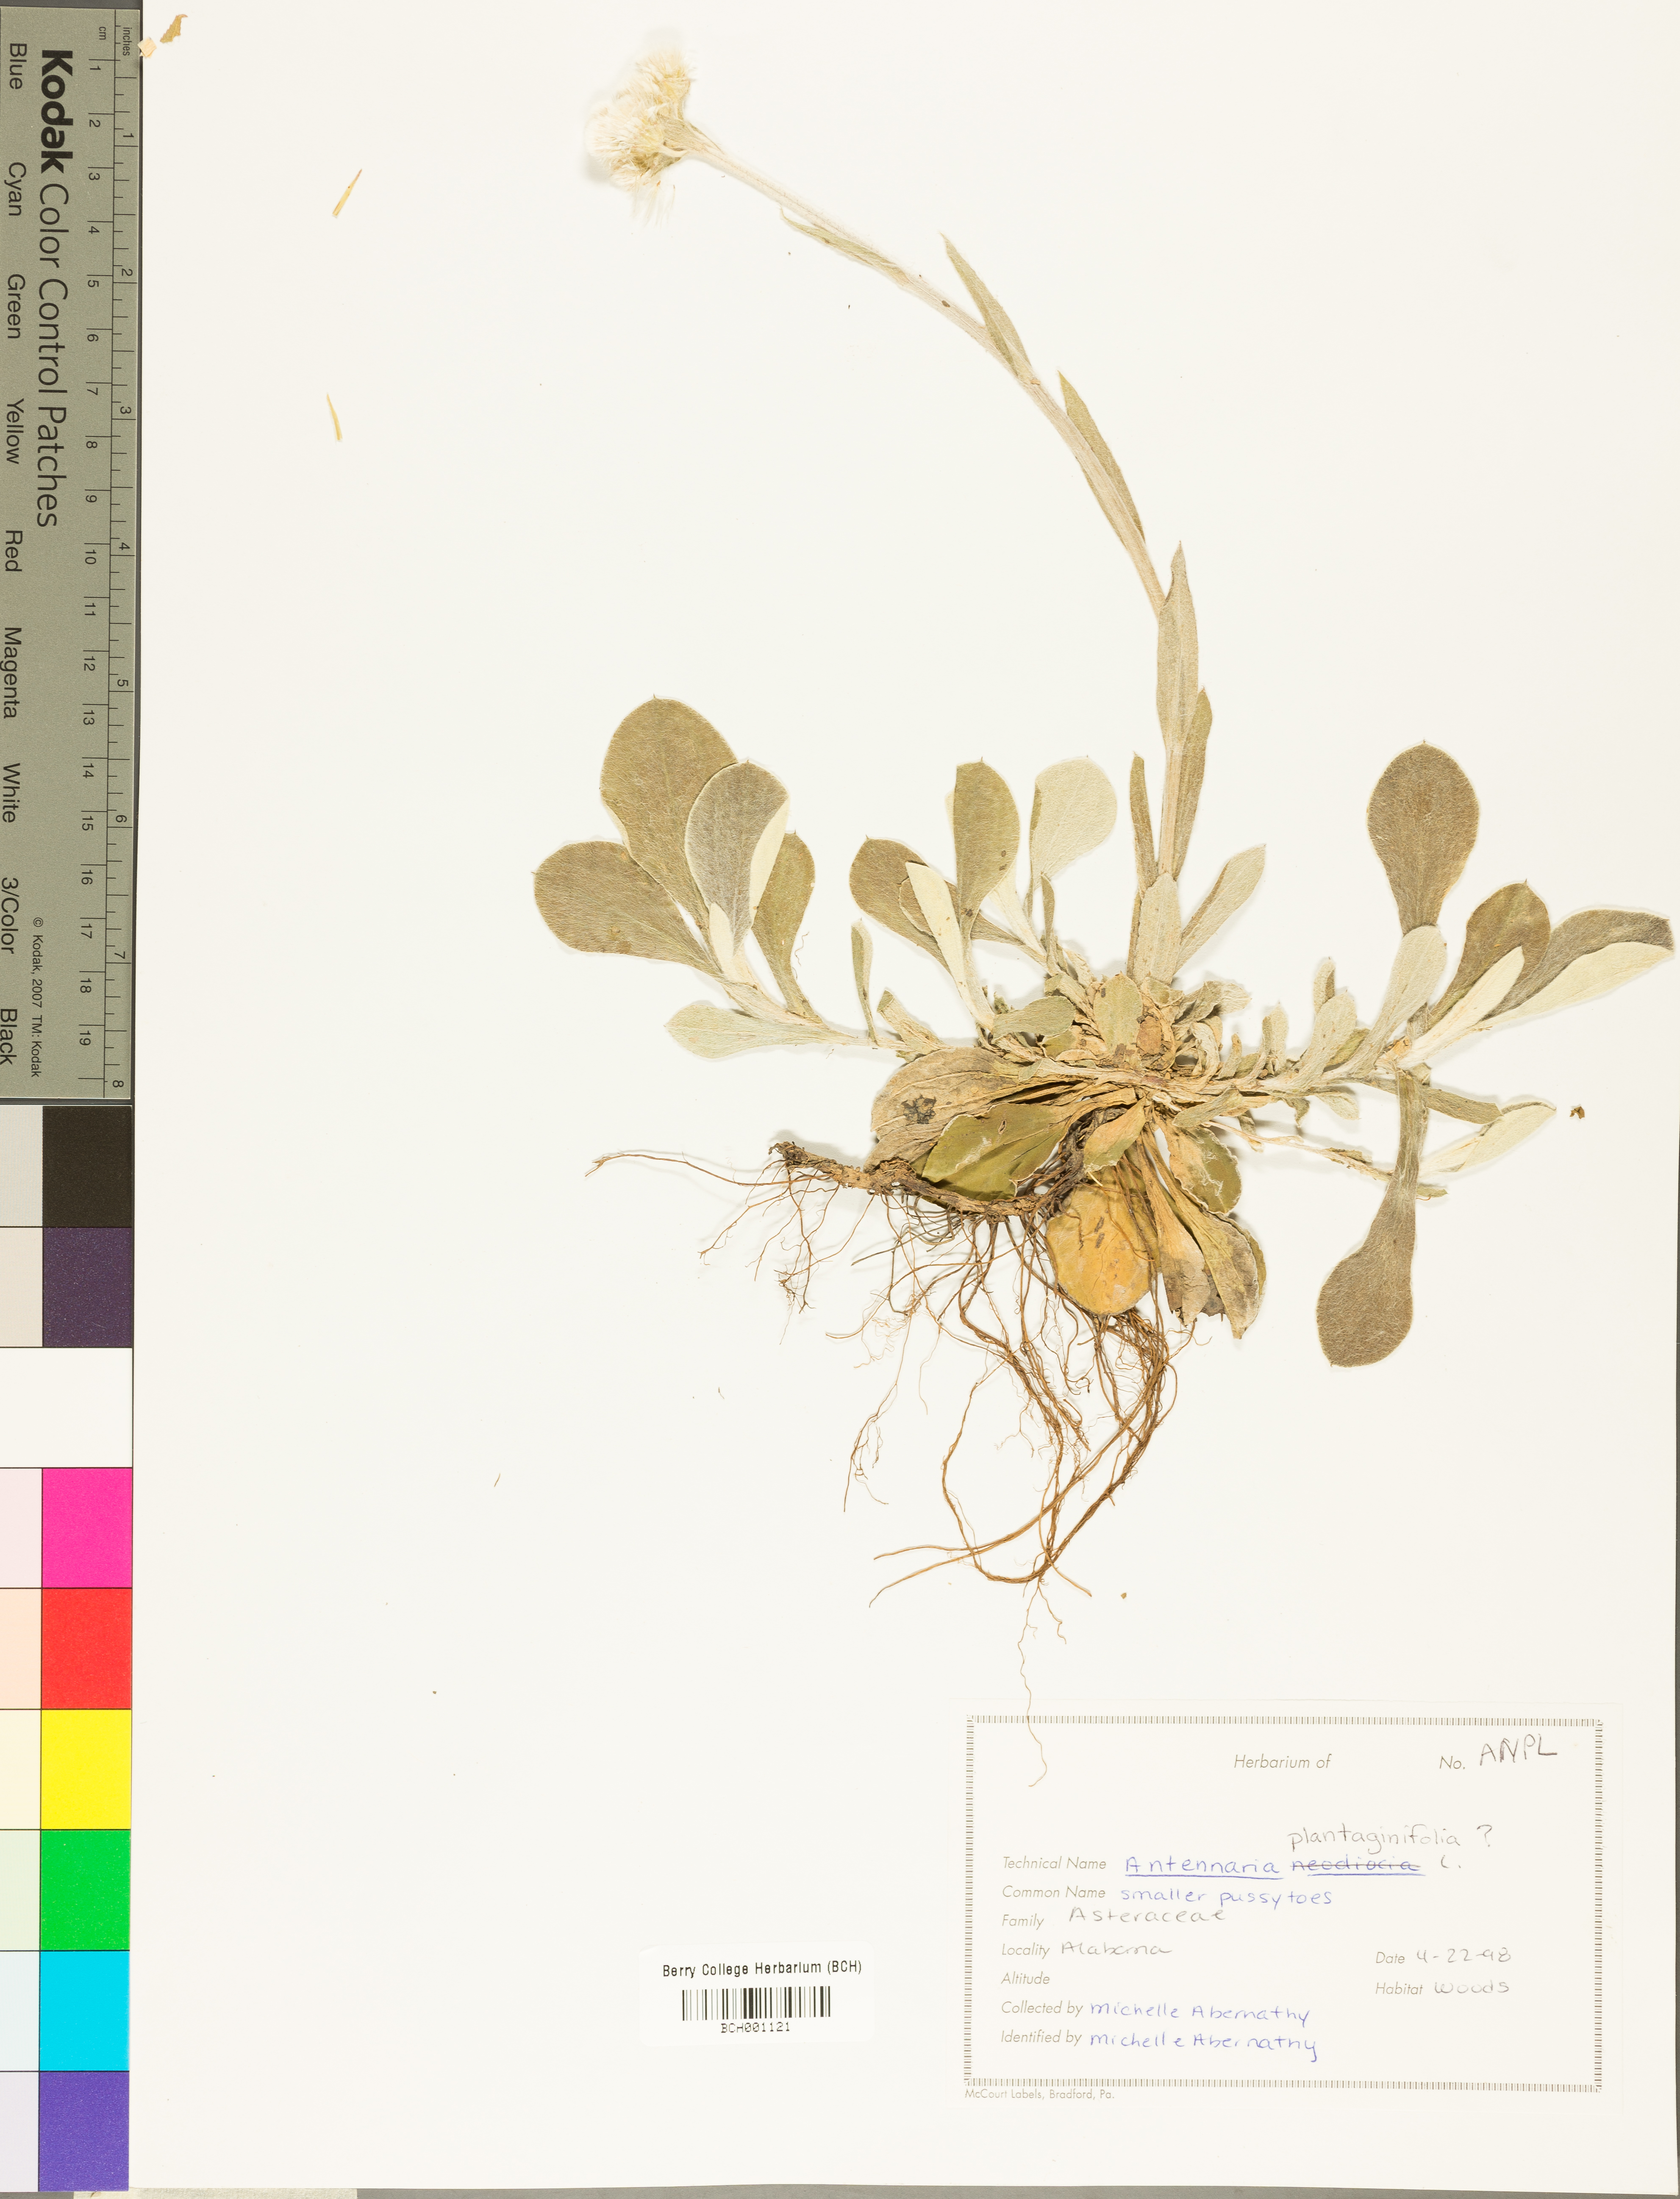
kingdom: Plantae
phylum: Tracheophyta
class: Magnoliopsida
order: Asterales
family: Asteraceae
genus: Antennaria
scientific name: Antennaria plantaginifolia
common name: Plantain-leaved pussytoes
